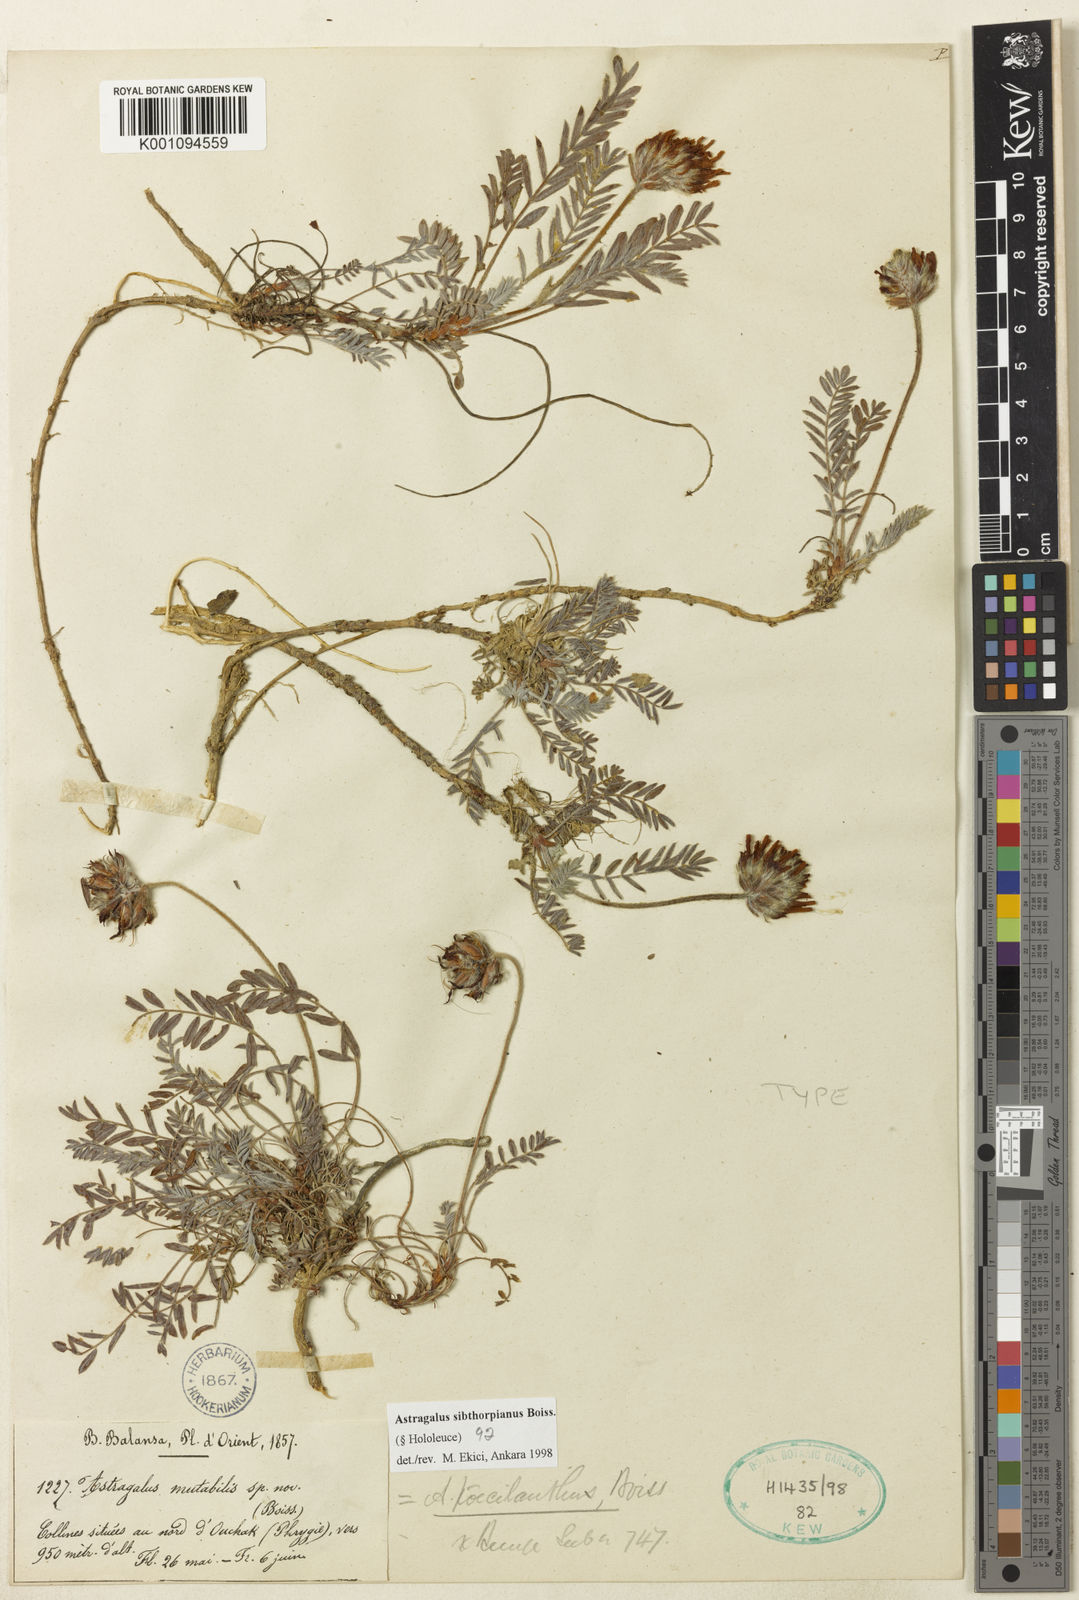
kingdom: Plantae
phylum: Tracheophyta
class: Magnoliopsida
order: Fabales
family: Fabaceae
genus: Astragalus
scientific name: Astragalus
